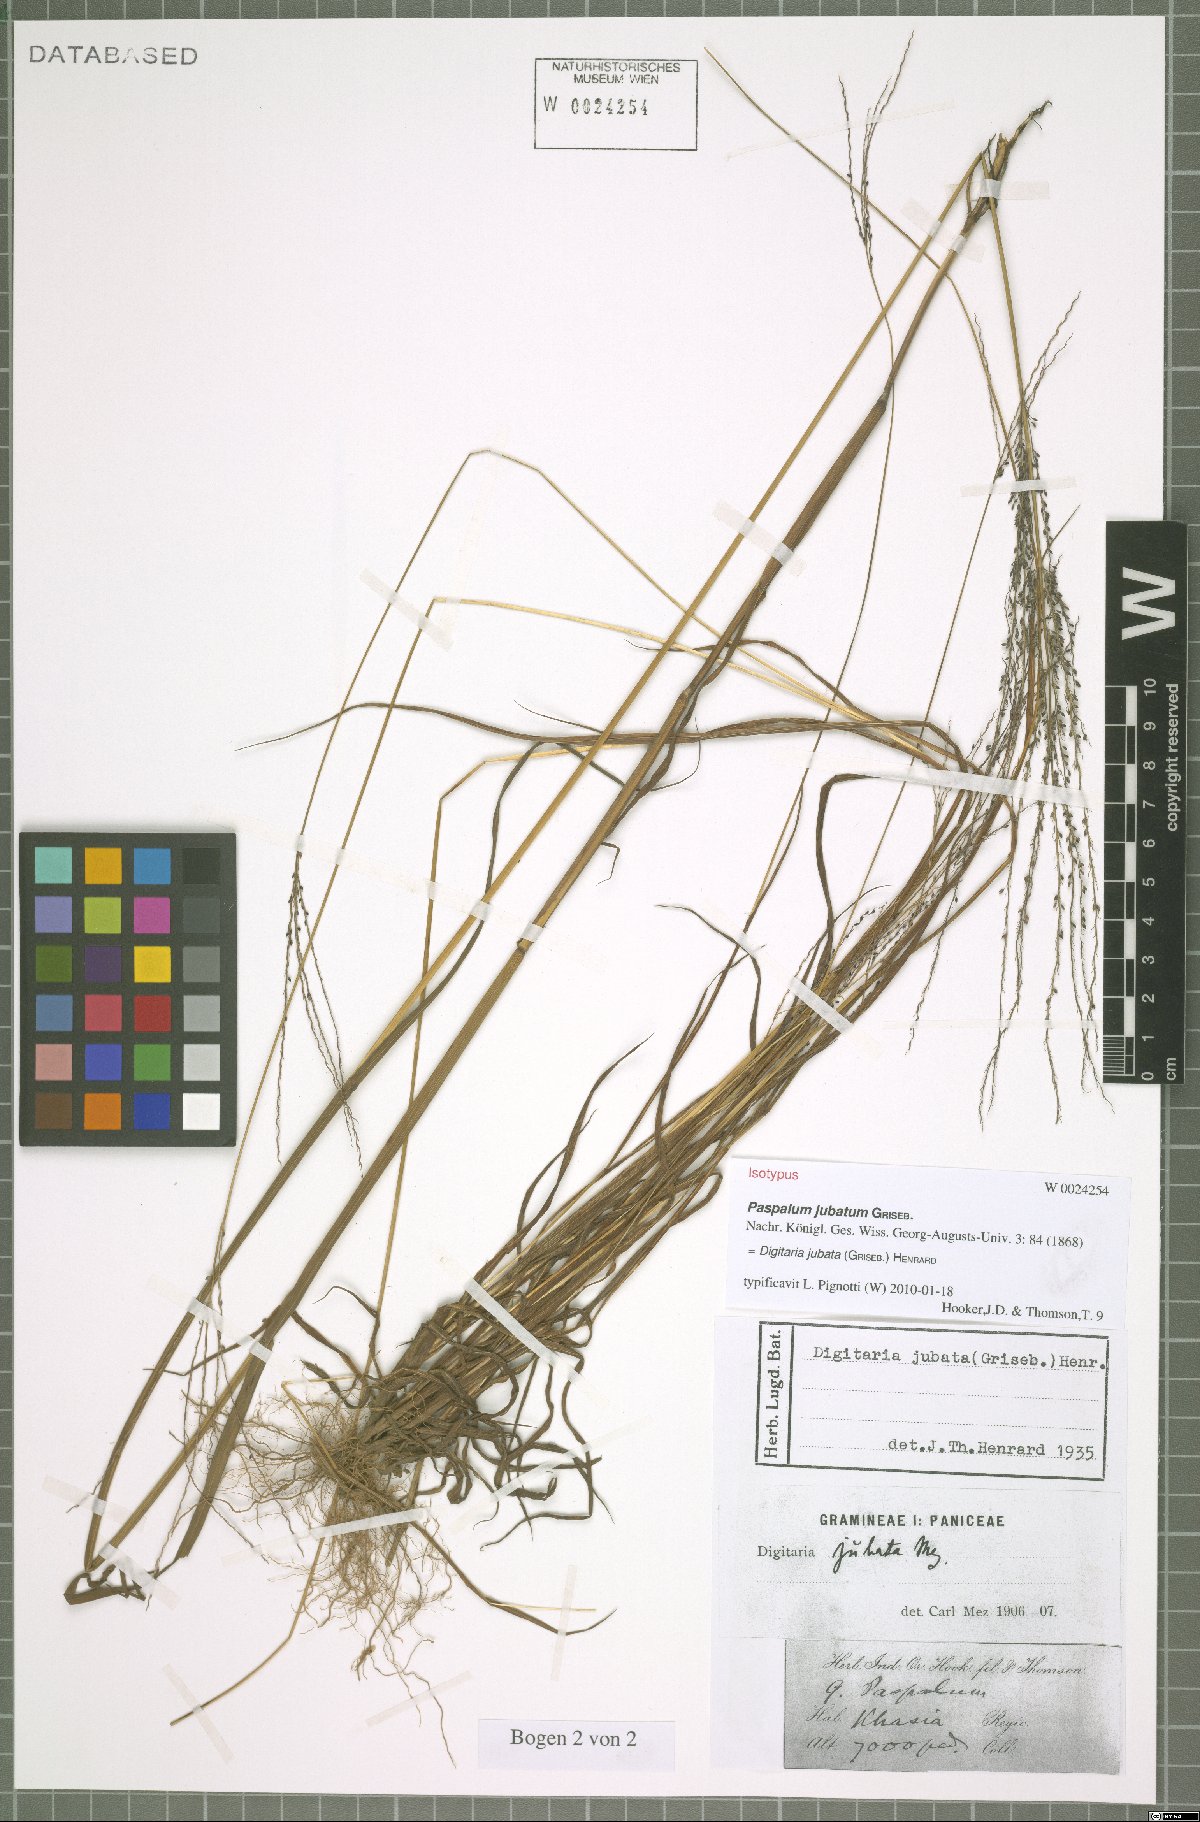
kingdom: Plantae
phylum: Tracheophyta
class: Liliopsida
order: Poales
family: Poaceae
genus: Digitaria
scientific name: Digitaria jubata
